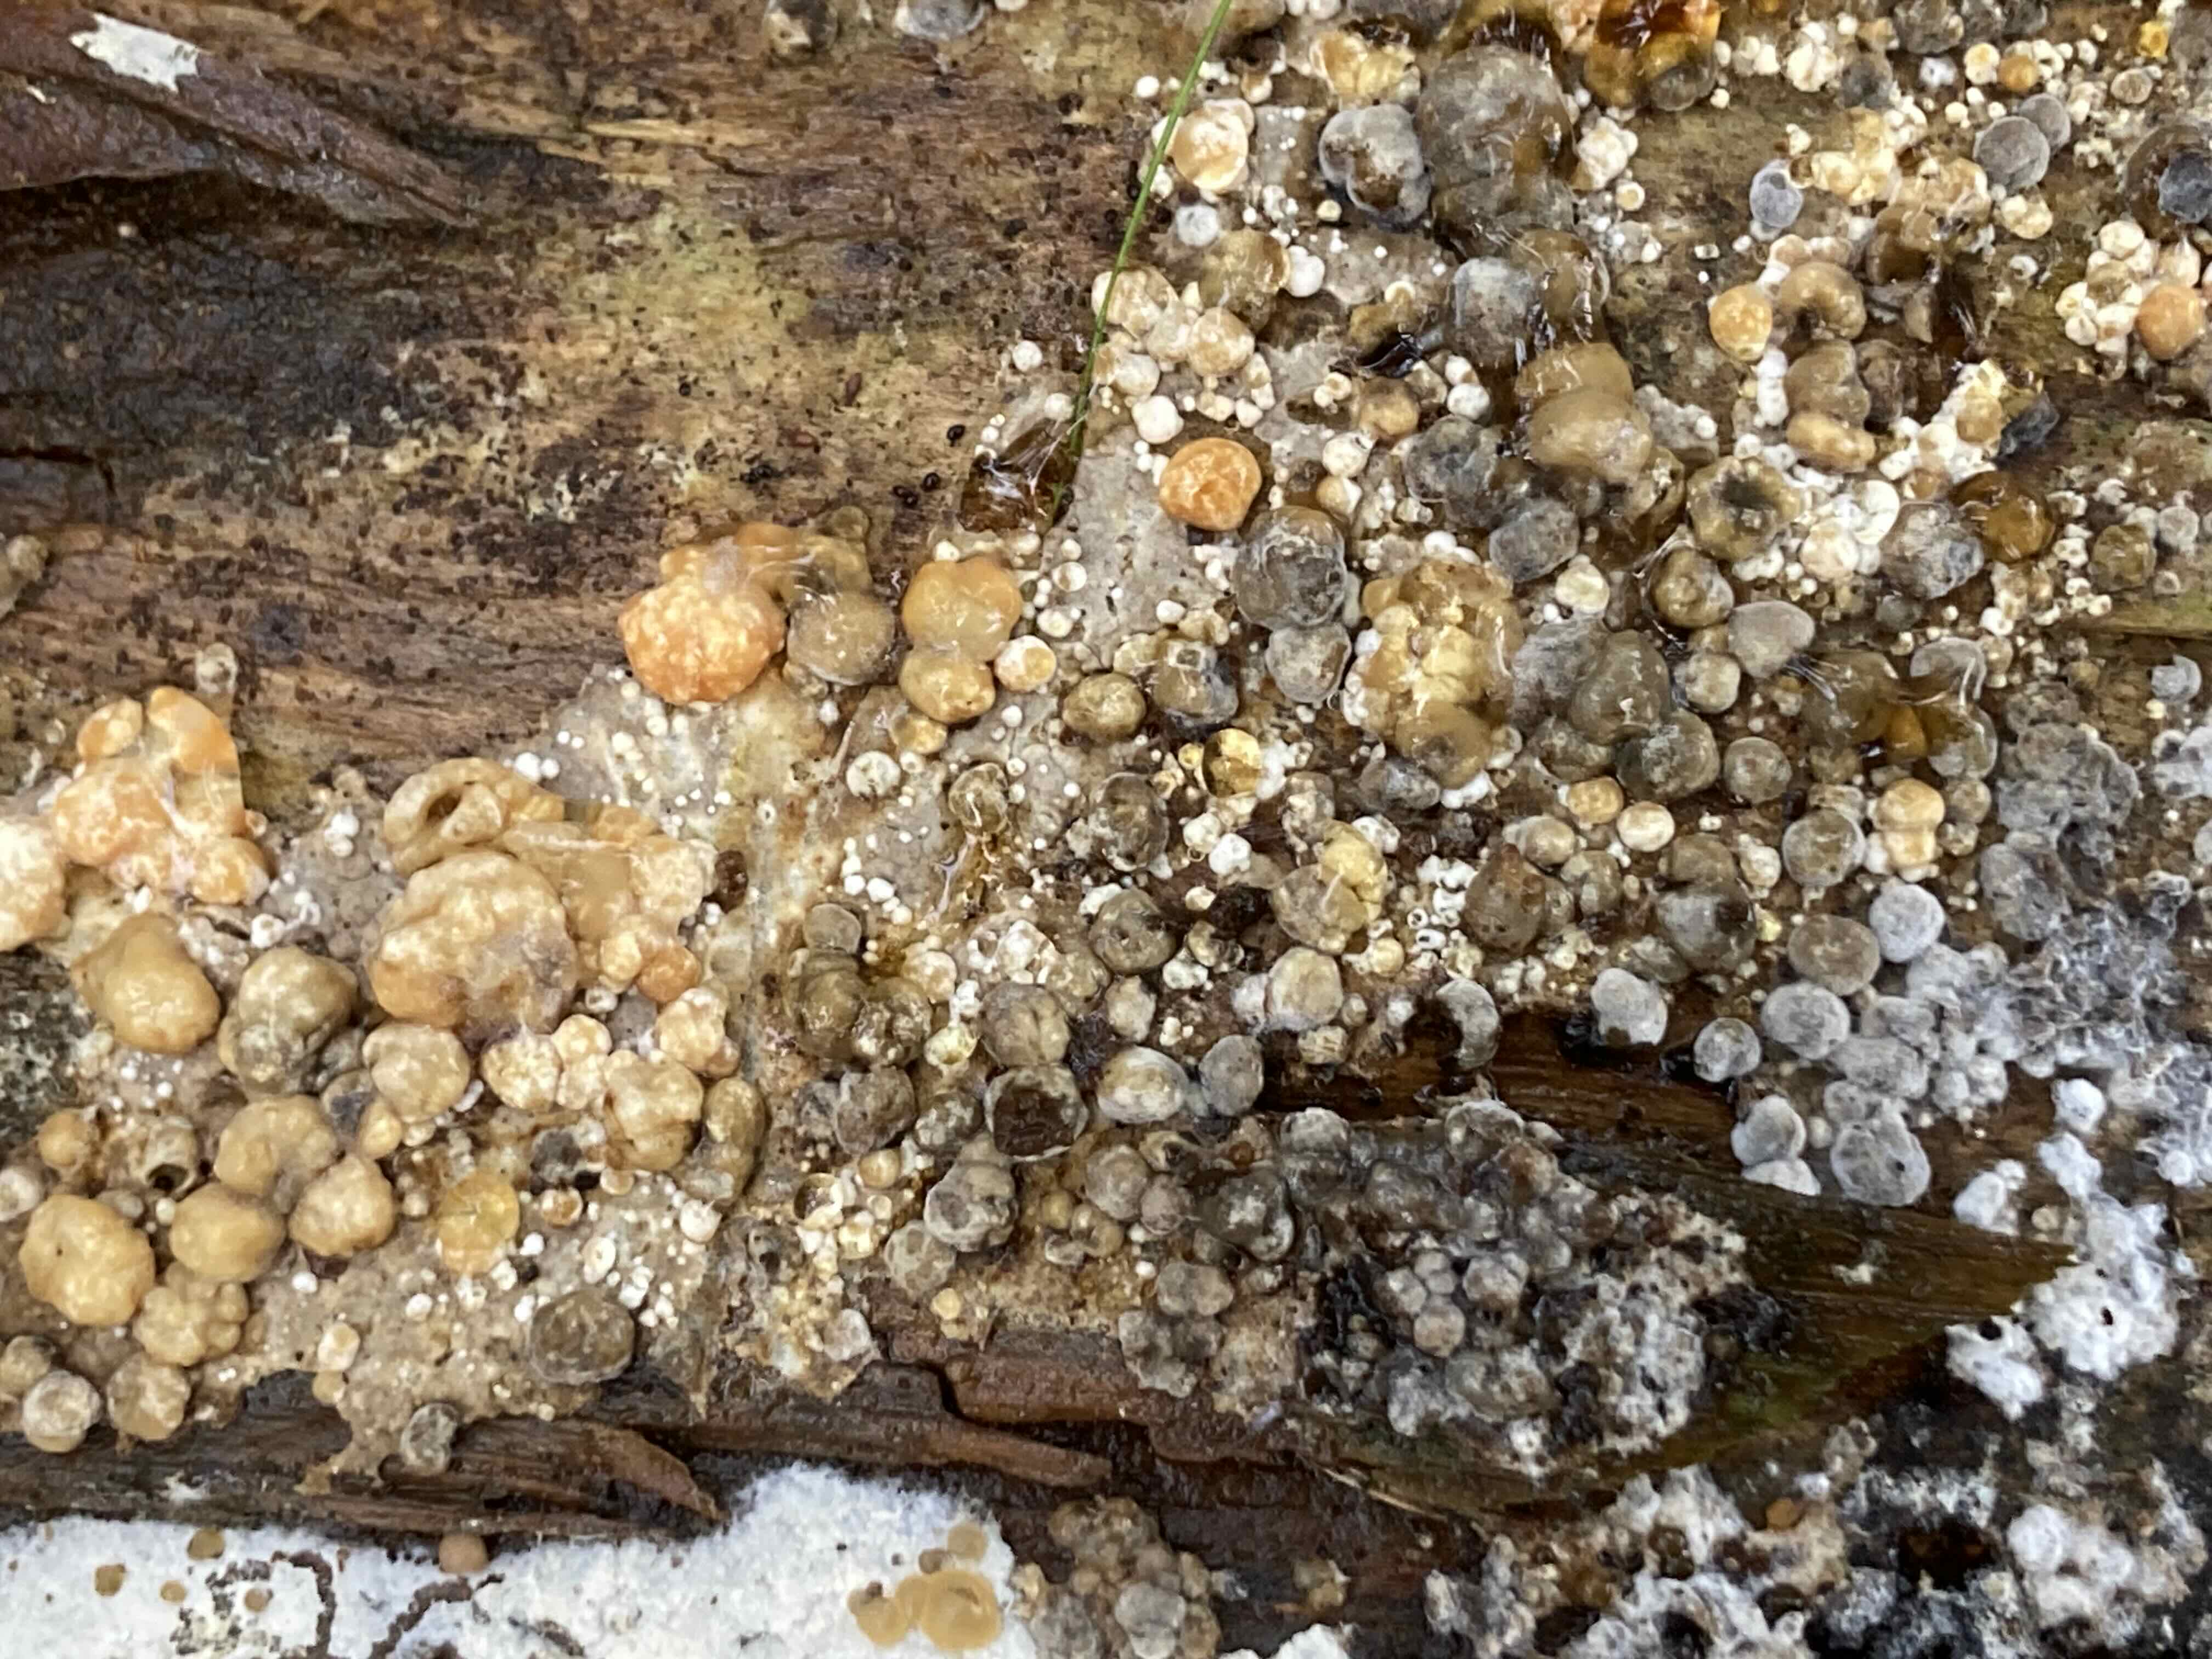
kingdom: Fungi
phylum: Ascomycota
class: Sordariomycetes
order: Xylariales
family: Hypoxylaceae
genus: Nodulisporium
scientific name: Nodulisporium cecidiogenes
